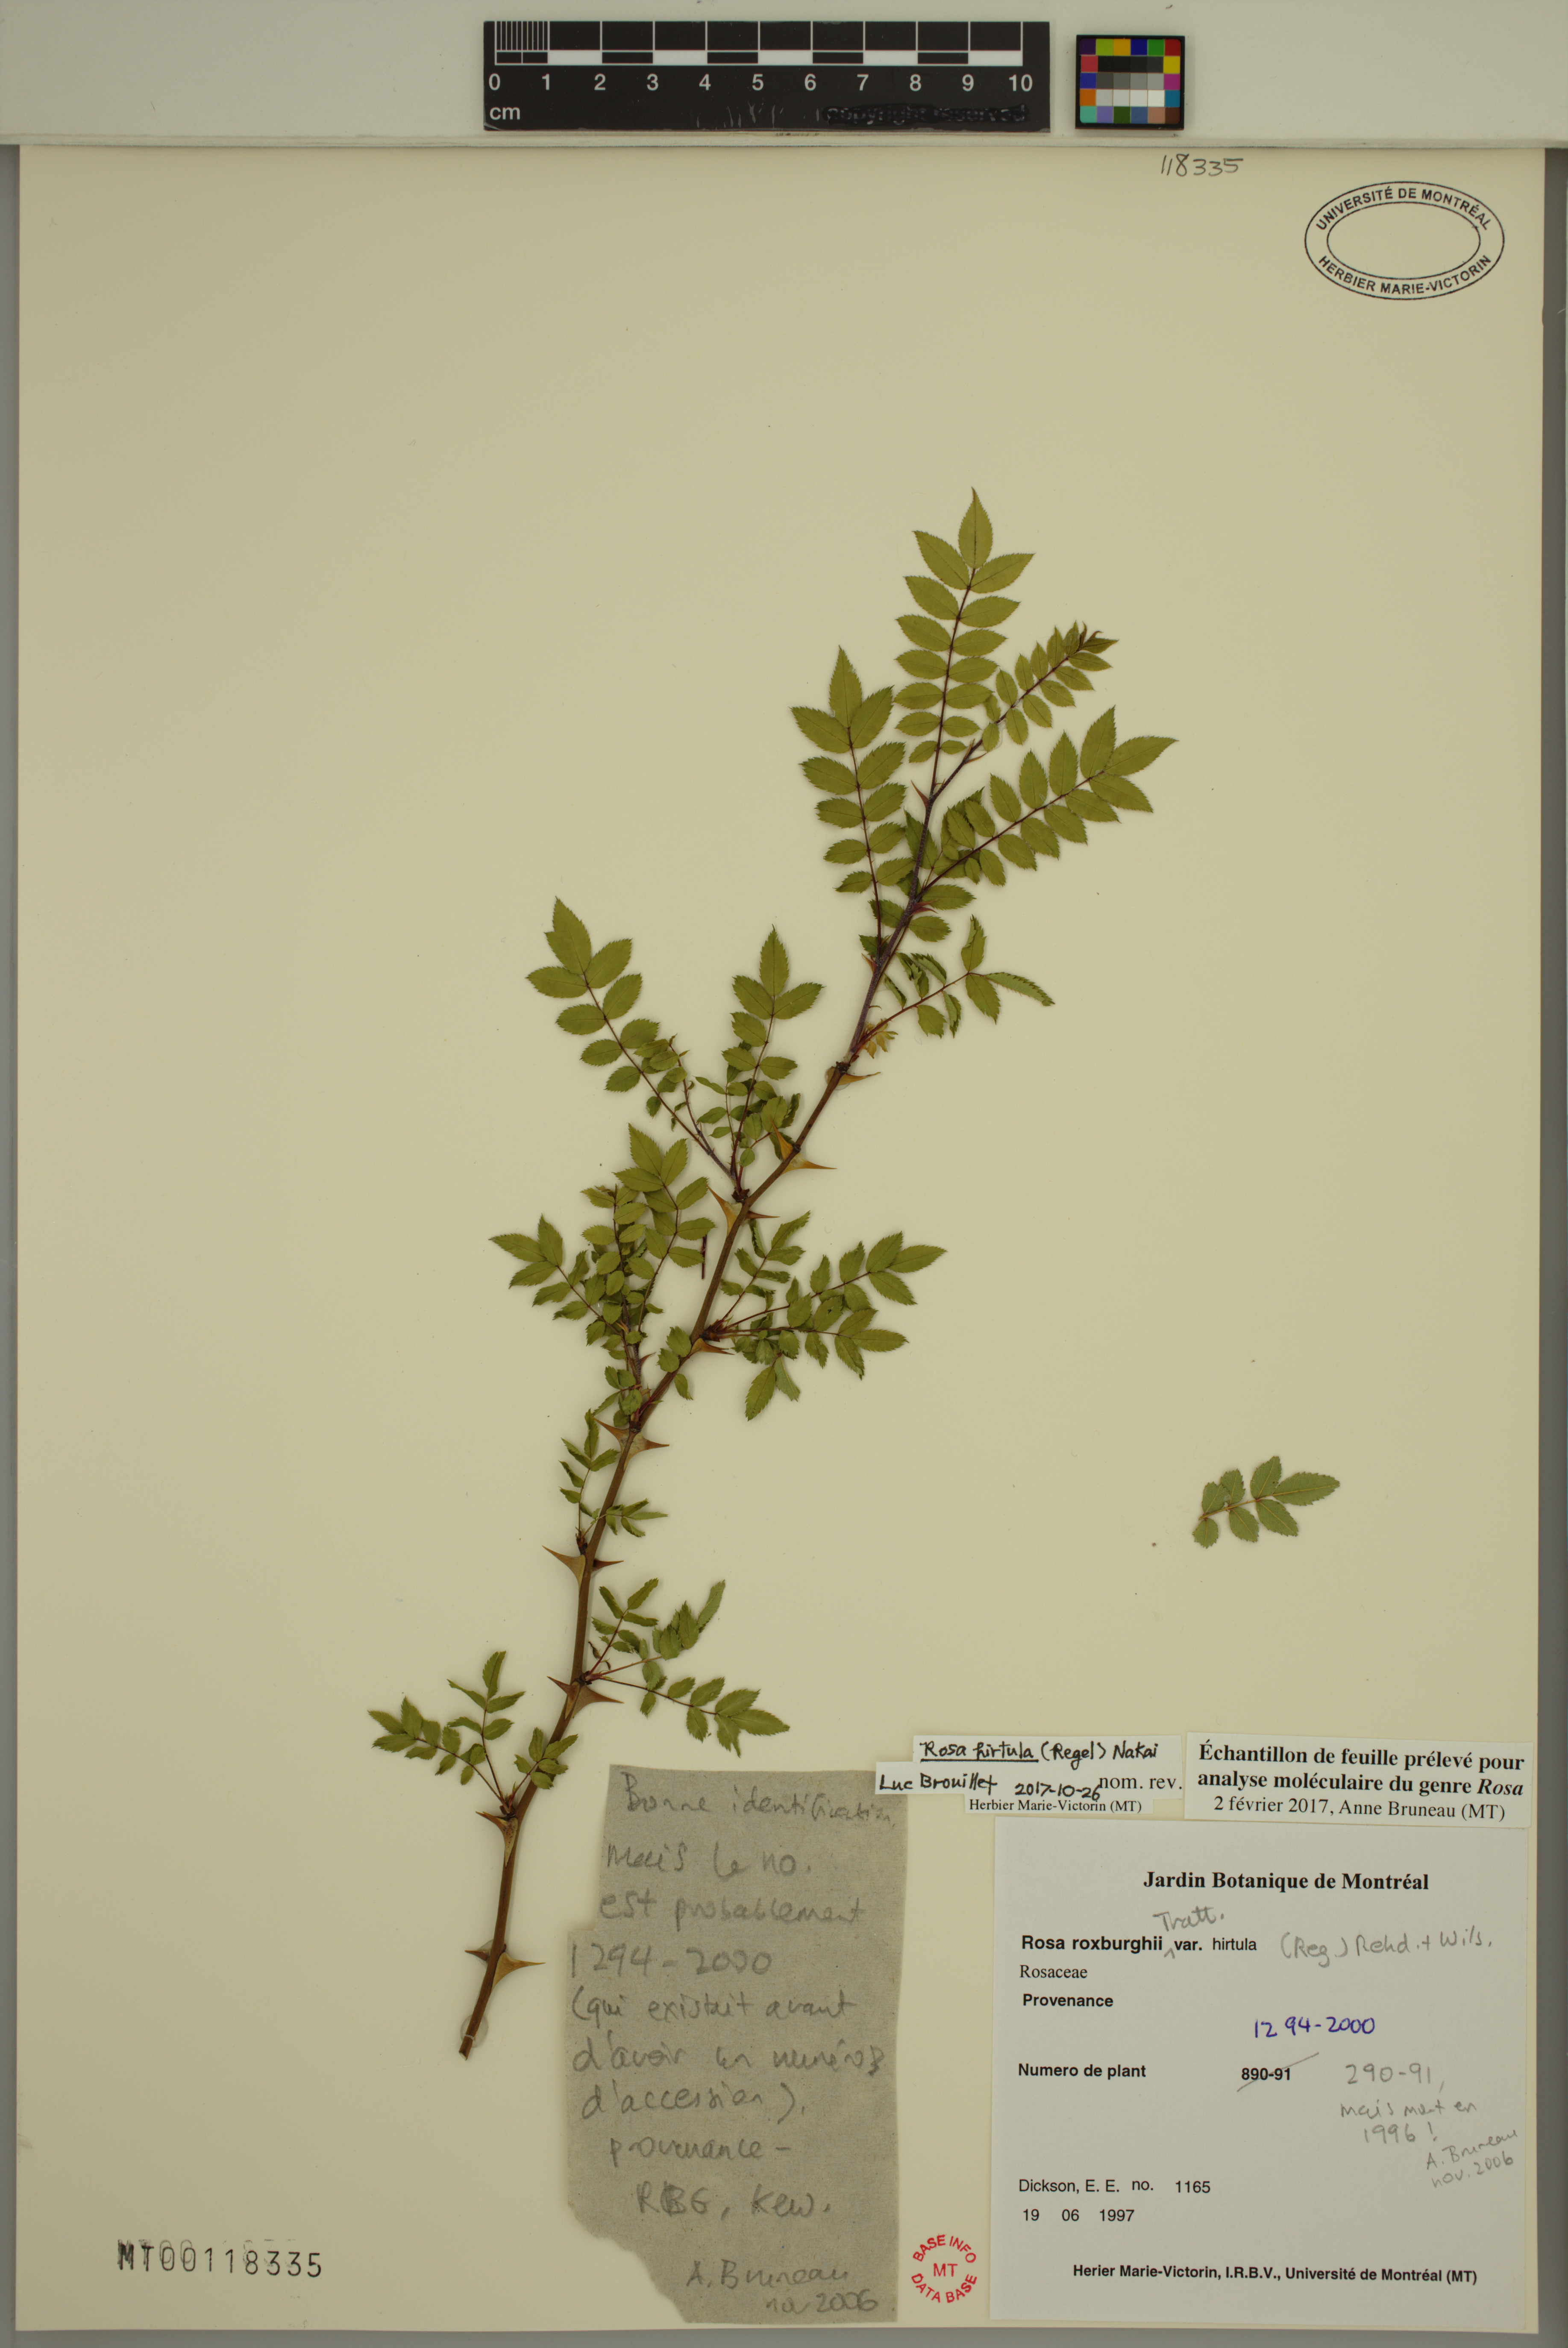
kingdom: Plantae
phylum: Tracheophyta
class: Magnoliopsida
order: Rosales
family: Rosaceae
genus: Rosa
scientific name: Rosa hirtula
